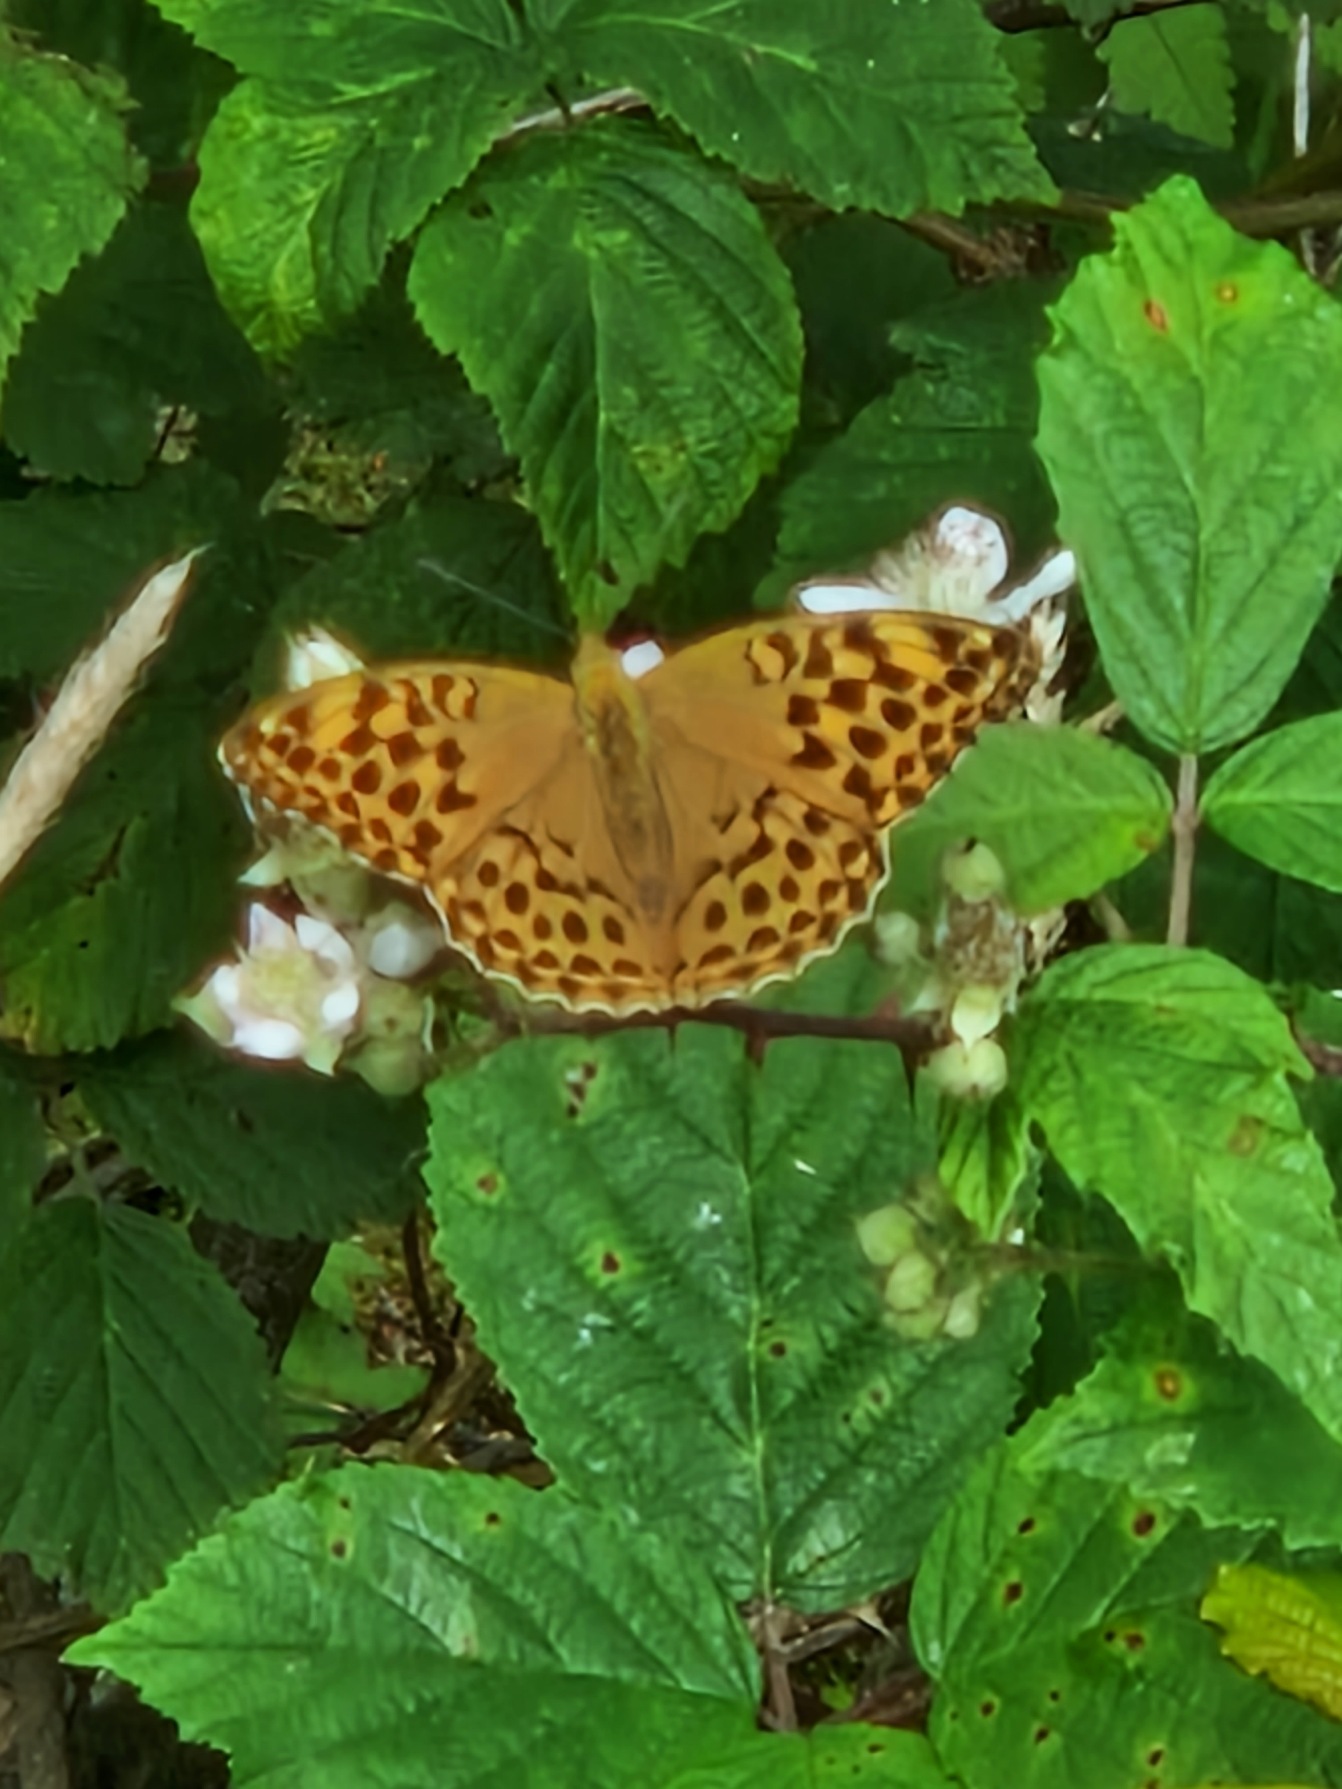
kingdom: Animalia
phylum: Arthropoda
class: Insecta
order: Lepidoptera
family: Nymphalidae
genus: Argynnis
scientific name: Argynnis paphia
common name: Kejserkåbe
